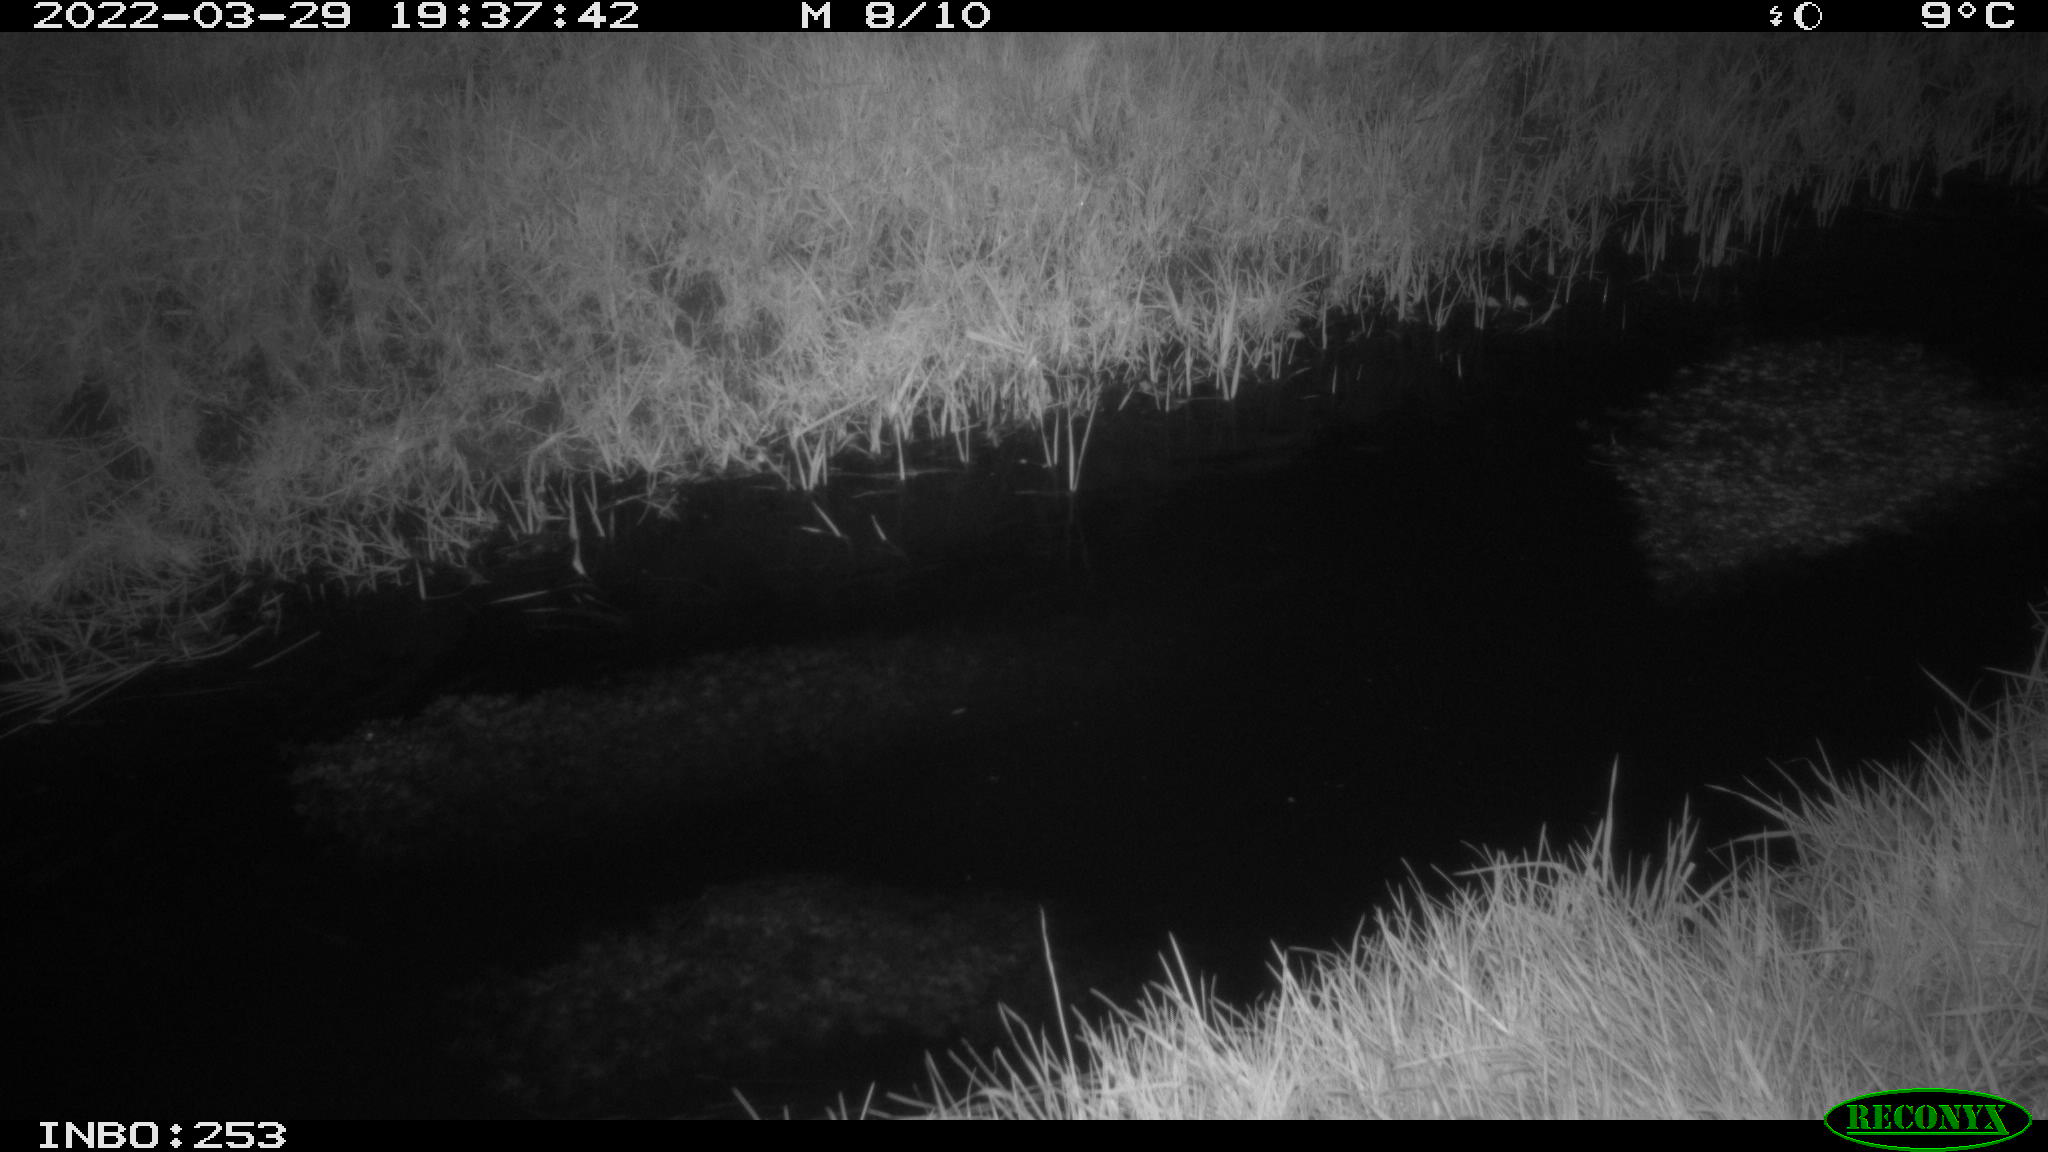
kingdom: Animalia
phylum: Chordata
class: Aves
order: Anseriformes
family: Anatidae
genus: Anas
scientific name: Anas platyrhynchos
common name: Mallard
